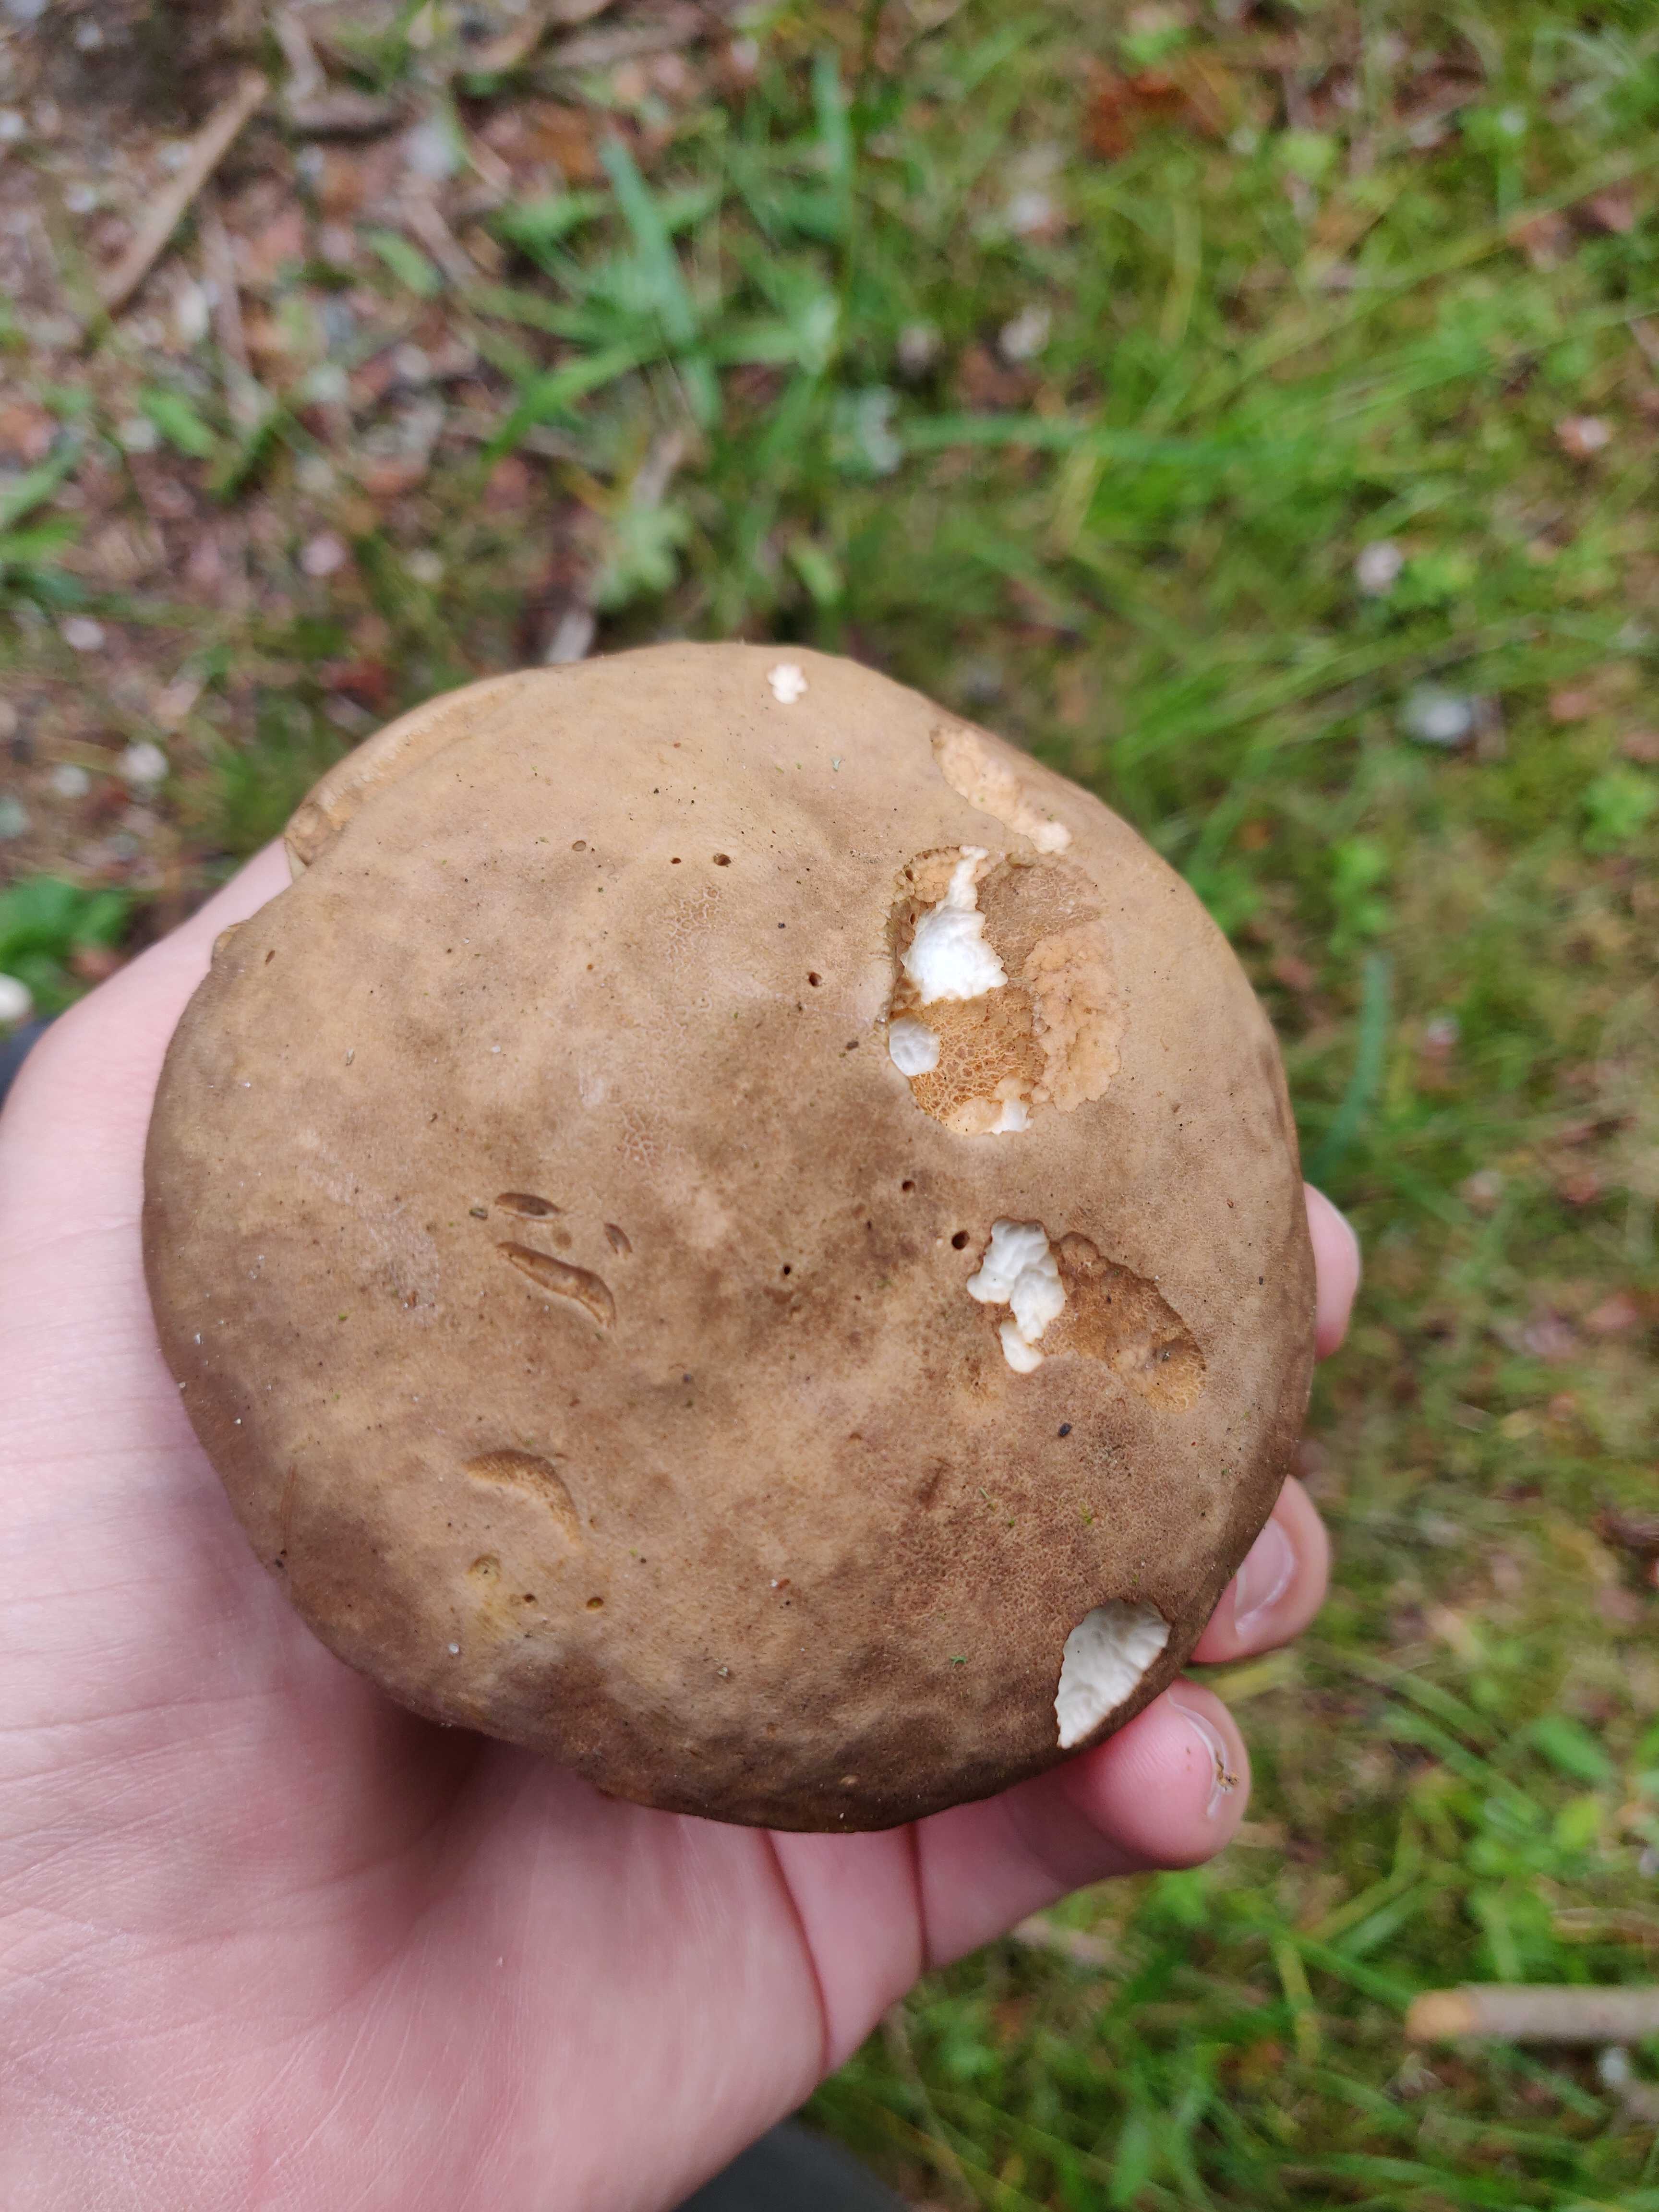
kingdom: Fungi
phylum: Basidiomycota
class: Agaricomycetes
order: Boletales
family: Boletaceae
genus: Boletus
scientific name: Boletus reticulatus
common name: sommer-rørhat
